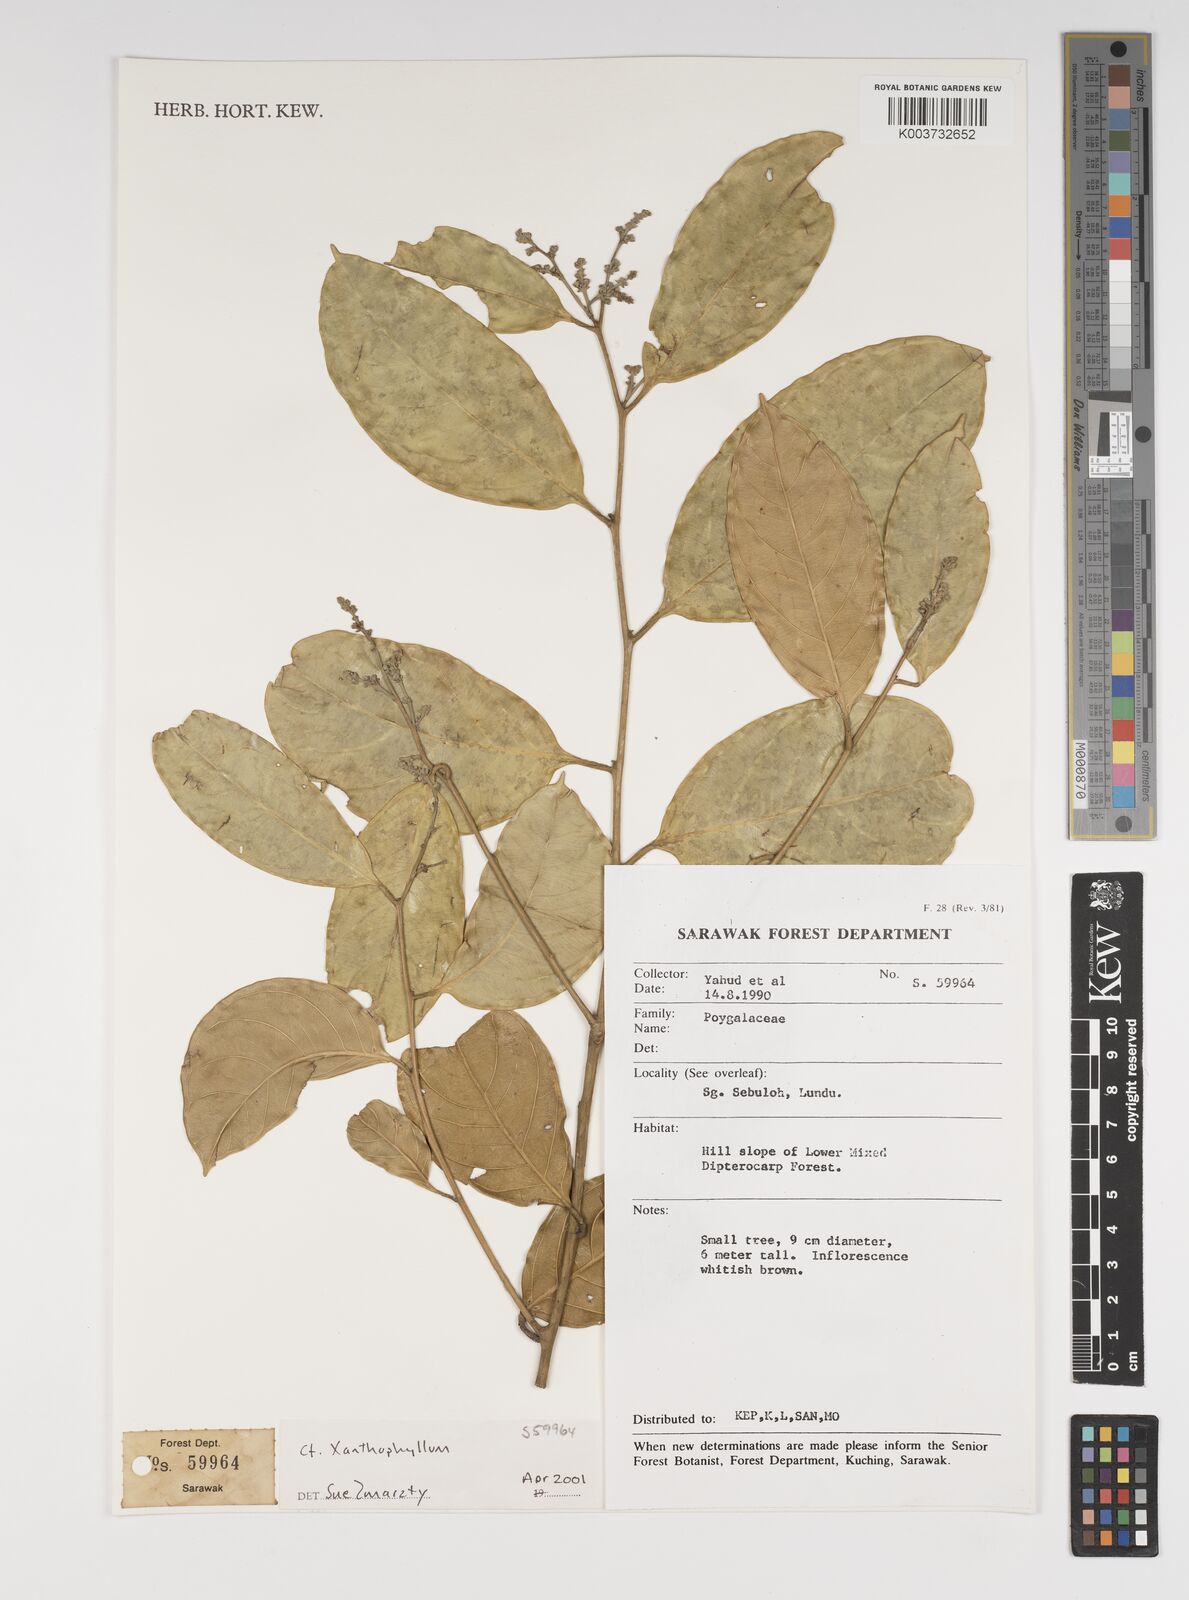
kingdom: Plantae
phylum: Tracheophyta
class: Magnoliopsida
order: Fabales
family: Polygalaceae
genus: Xanthophyllum
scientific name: Xanthophyllum
